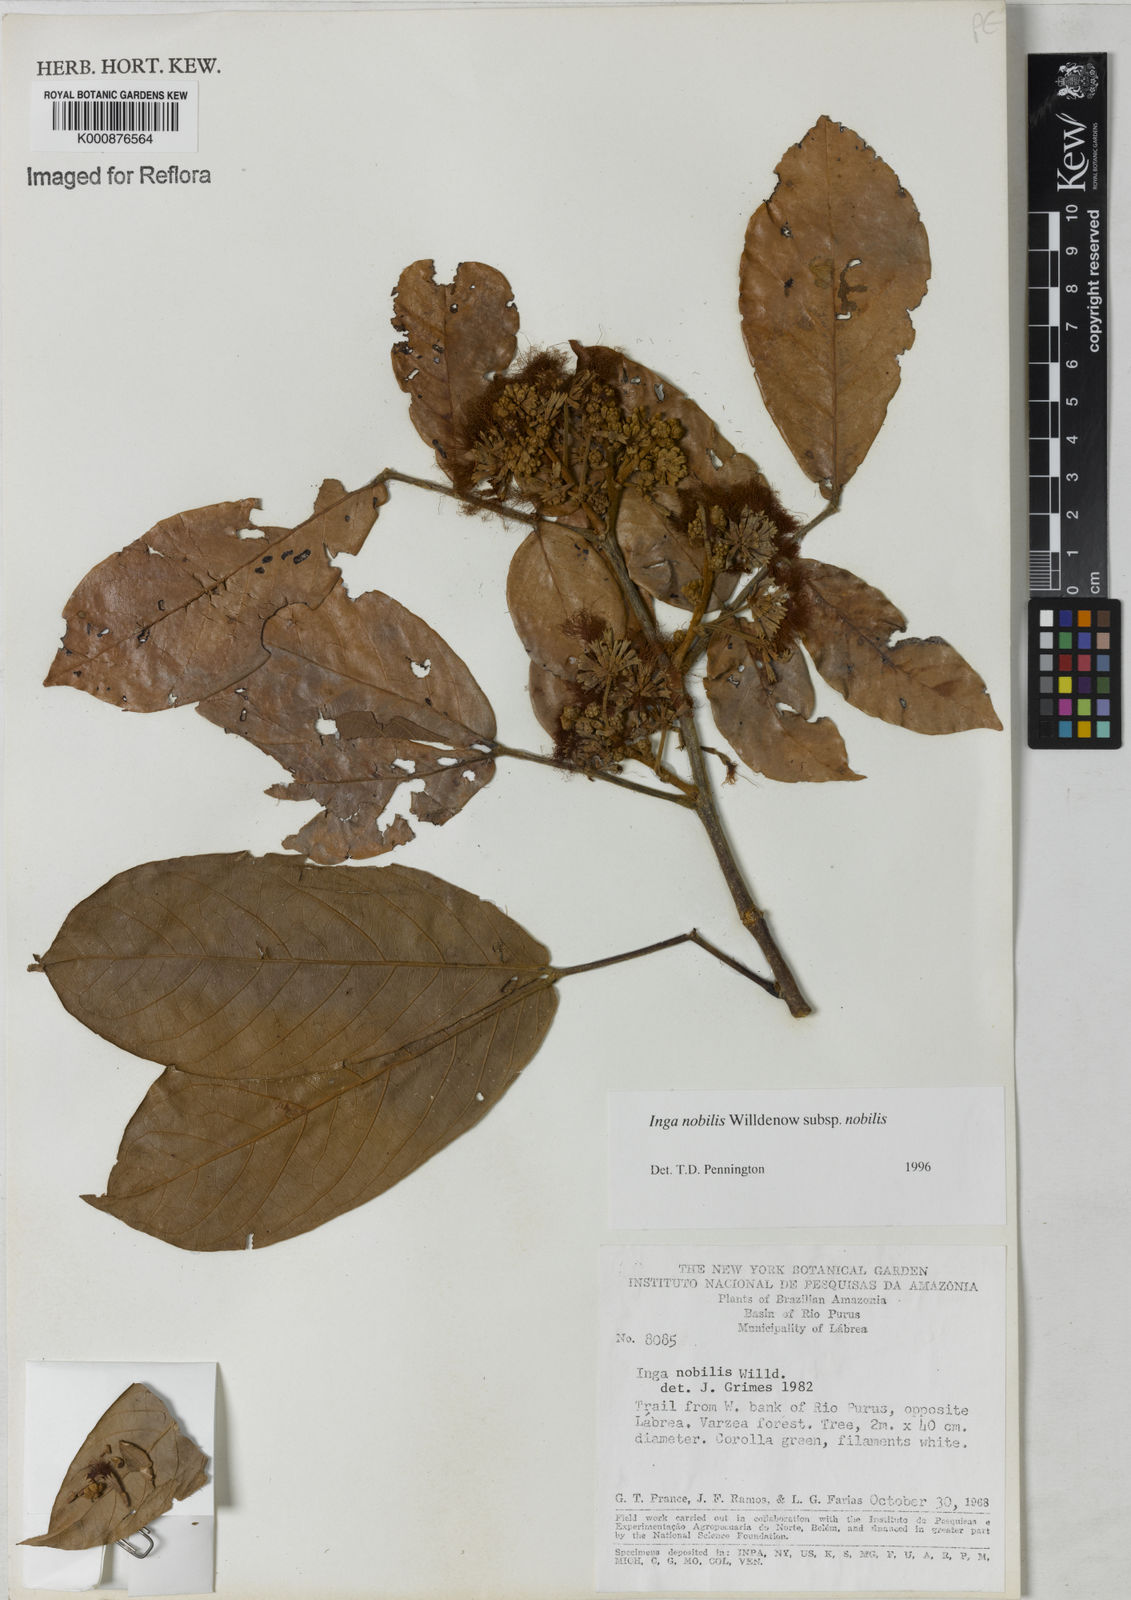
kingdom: Plantae
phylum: Tracheophyta
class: Magnoliopsida
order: Fabales
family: Fabaceae
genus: Inga
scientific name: Inga nobilis
